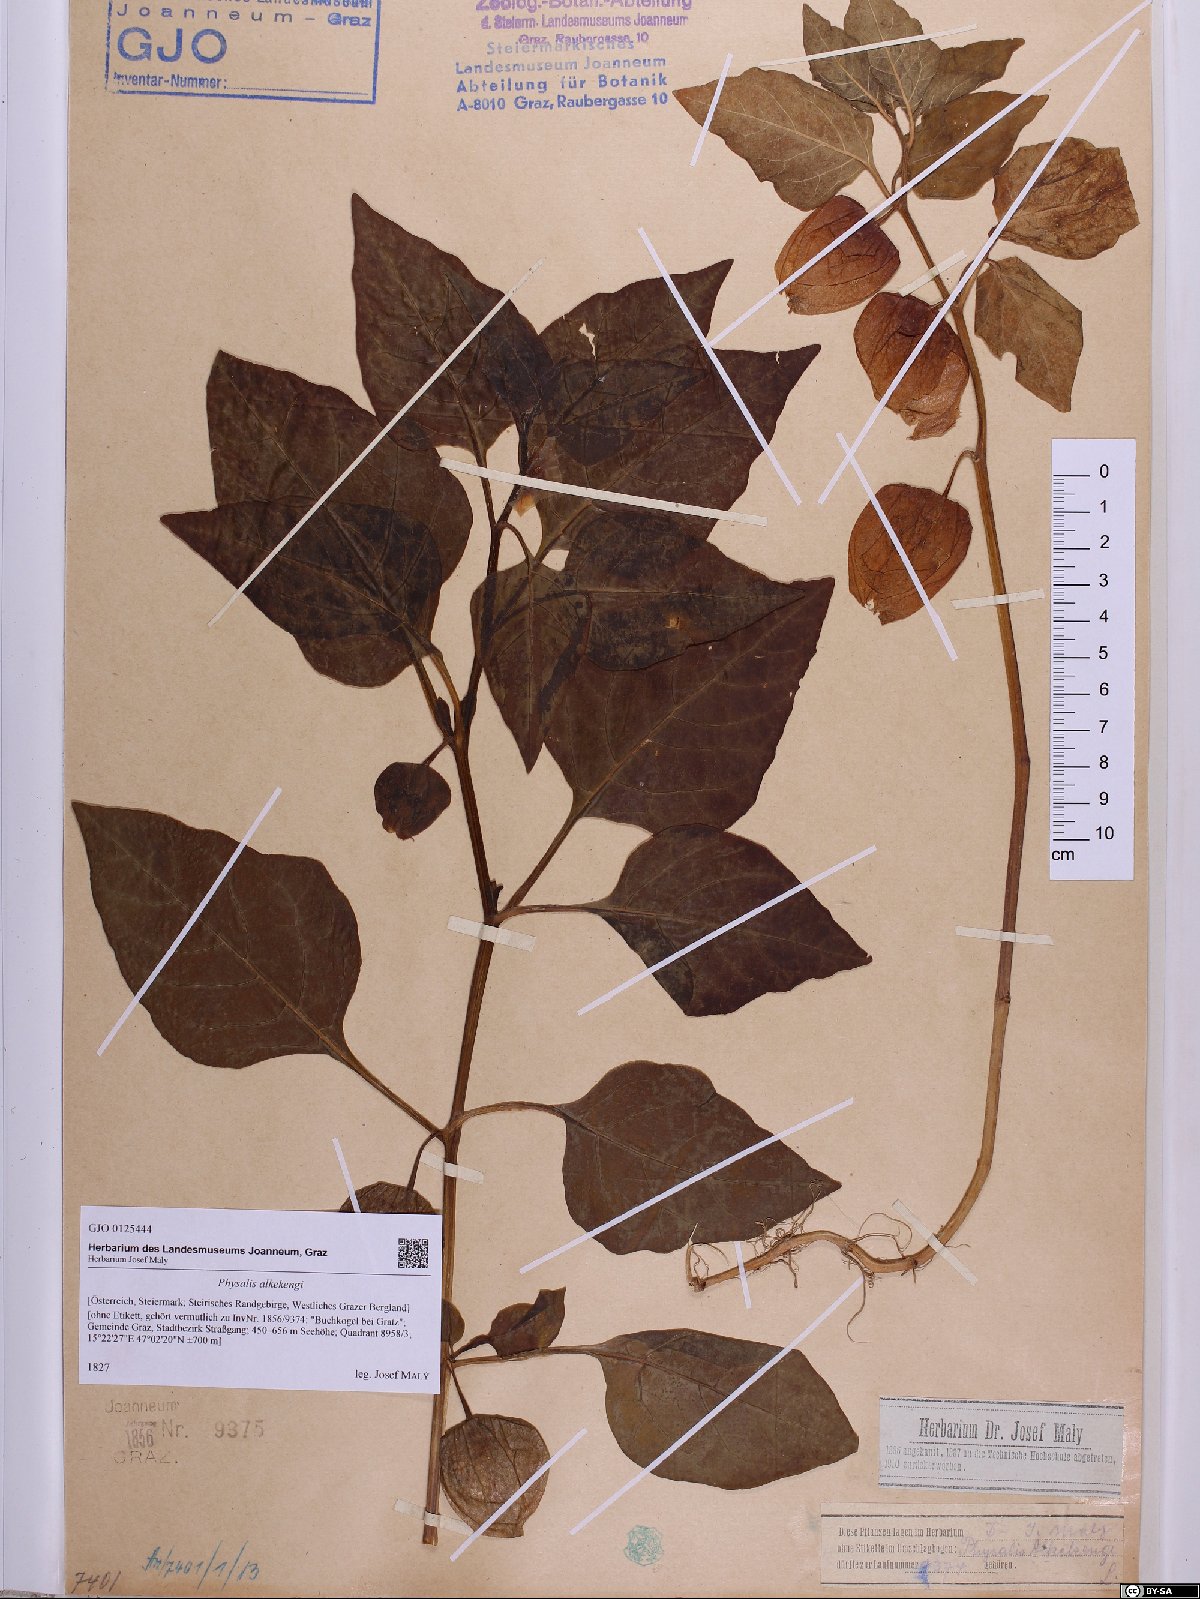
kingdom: Plantae
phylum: Tracheophyta
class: Magnoliopsida
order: Solanales
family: Solanaceae
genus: Alkekengi
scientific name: Alkekengi officinarum
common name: Japanese-lantern
